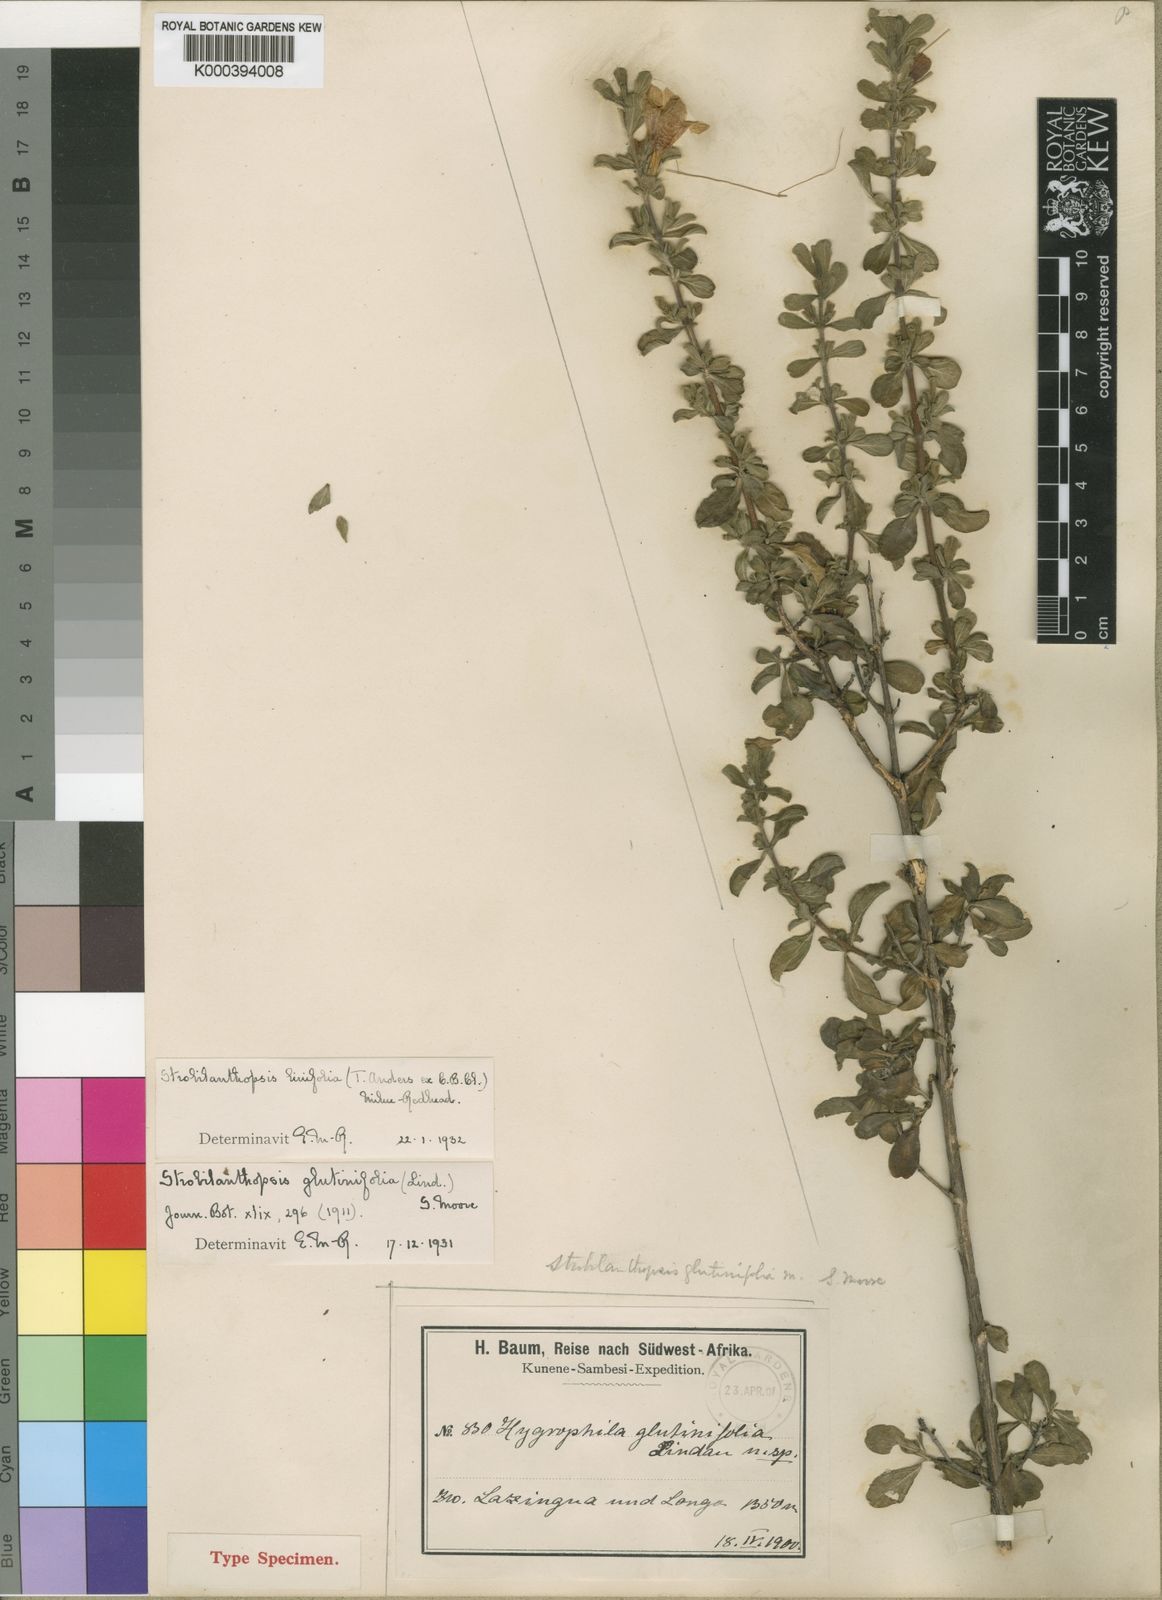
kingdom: Plantae
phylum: Tracheophyta
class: Magnoliopsida
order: Lamiales
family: Acanthaceae
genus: Strobilanthopsis
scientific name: Strobilanthopsis linifolia
